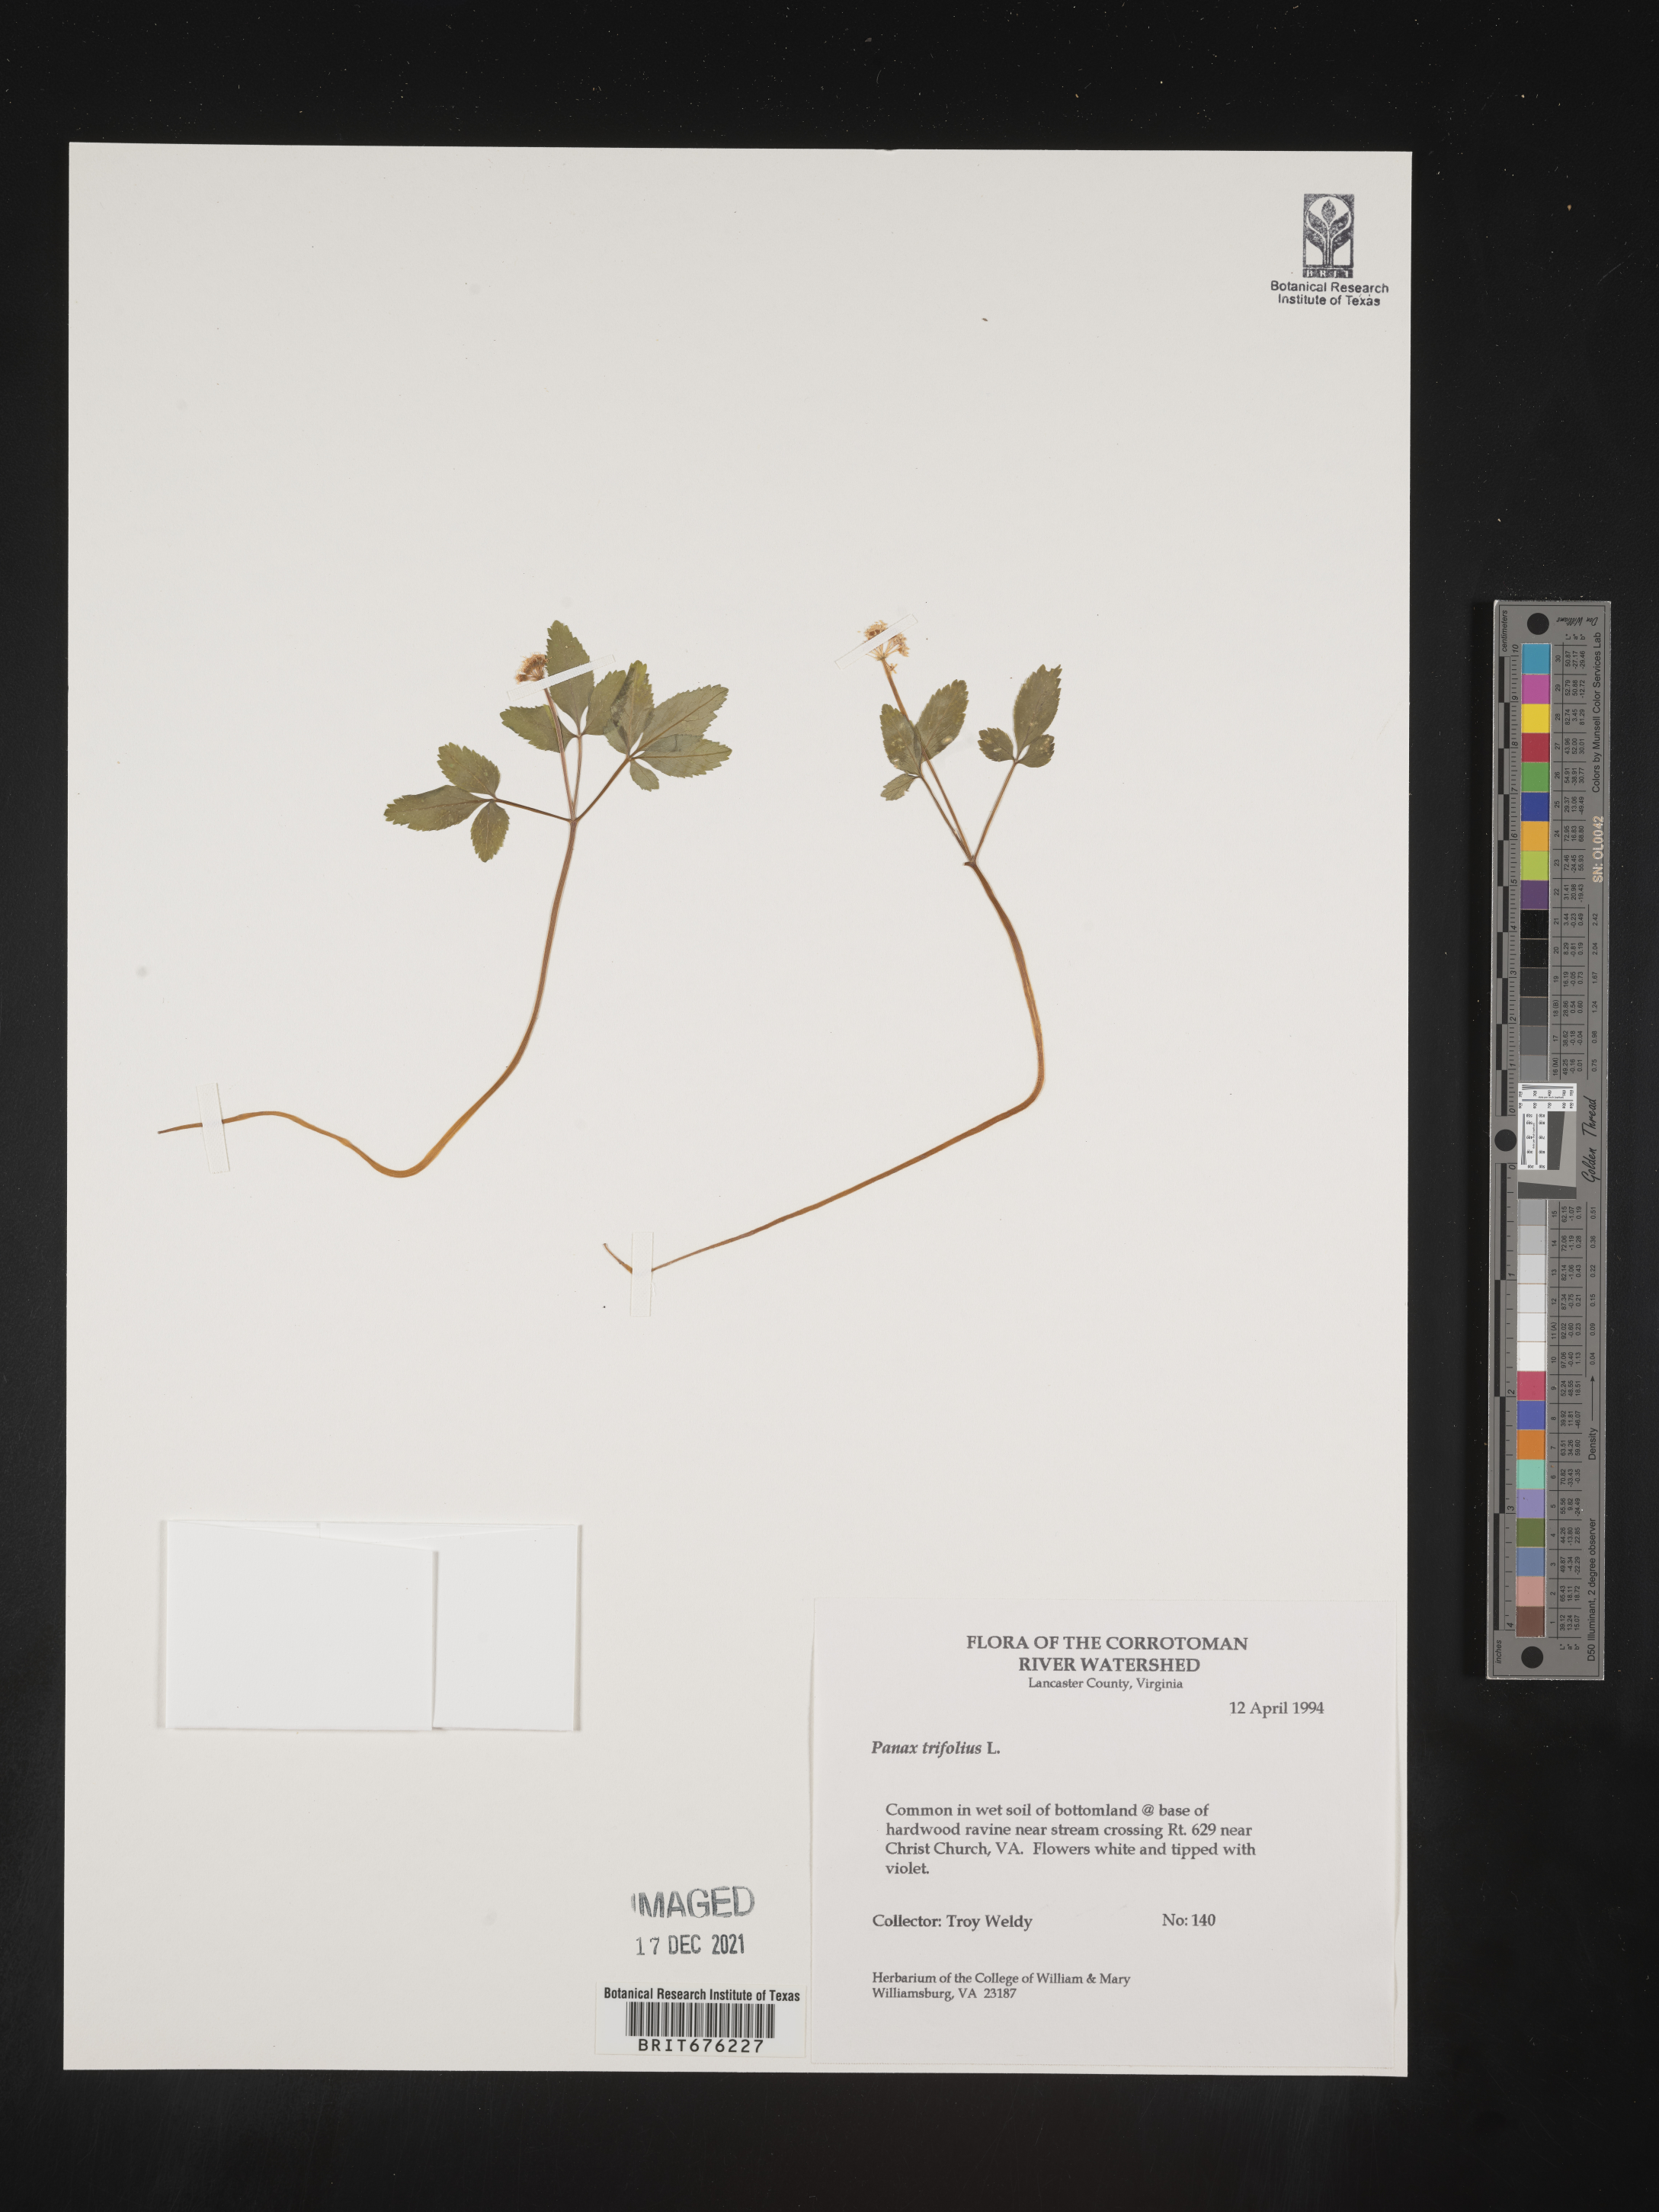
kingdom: Plantae
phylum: Tracheophyta
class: Magnoliopsida
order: Apiales
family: Araliaceae
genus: Panax
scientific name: Panax trifolius
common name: Dwarf ginseng
